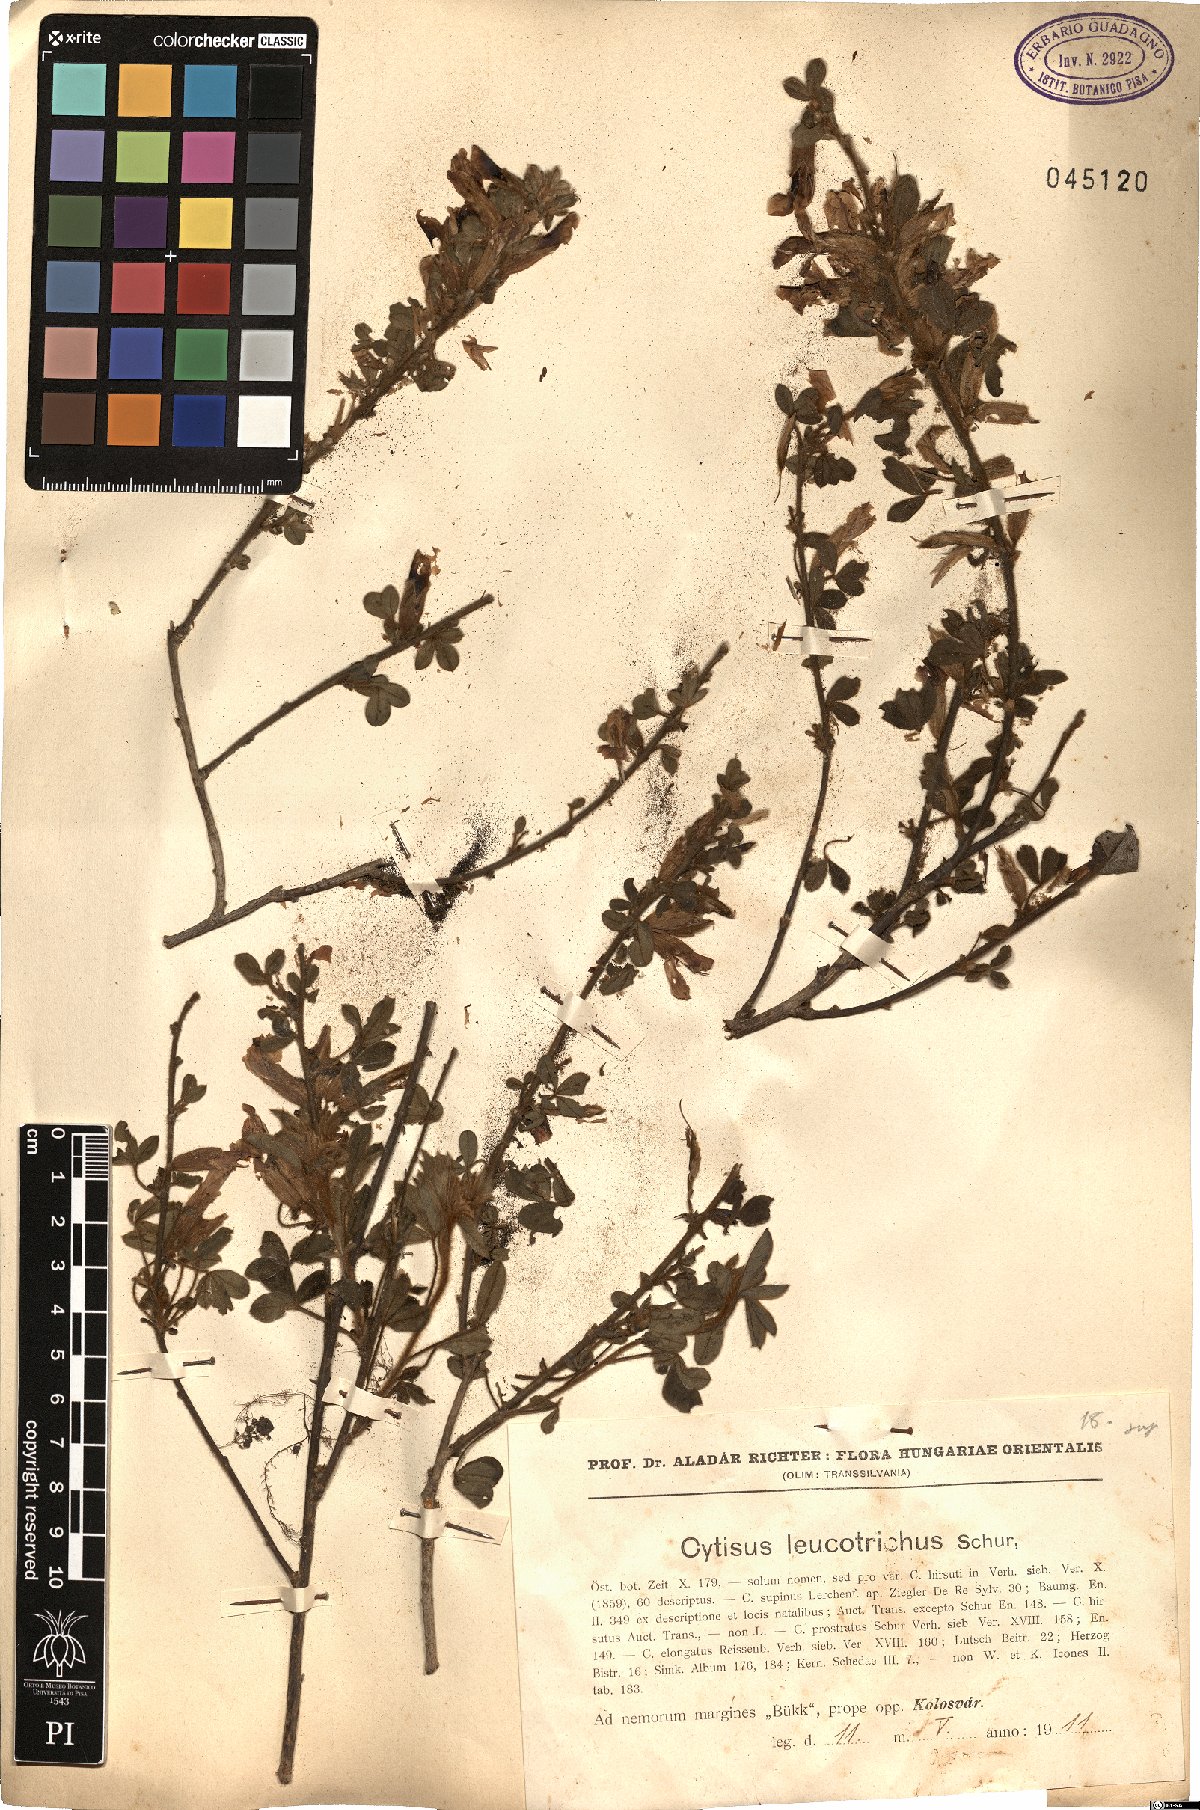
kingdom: Plantae
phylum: Tracheophyta
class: Magnoliopsida
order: Fabales
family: Fabaceae
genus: Chamaecytisus
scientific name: Chamaecytisus triflorus
